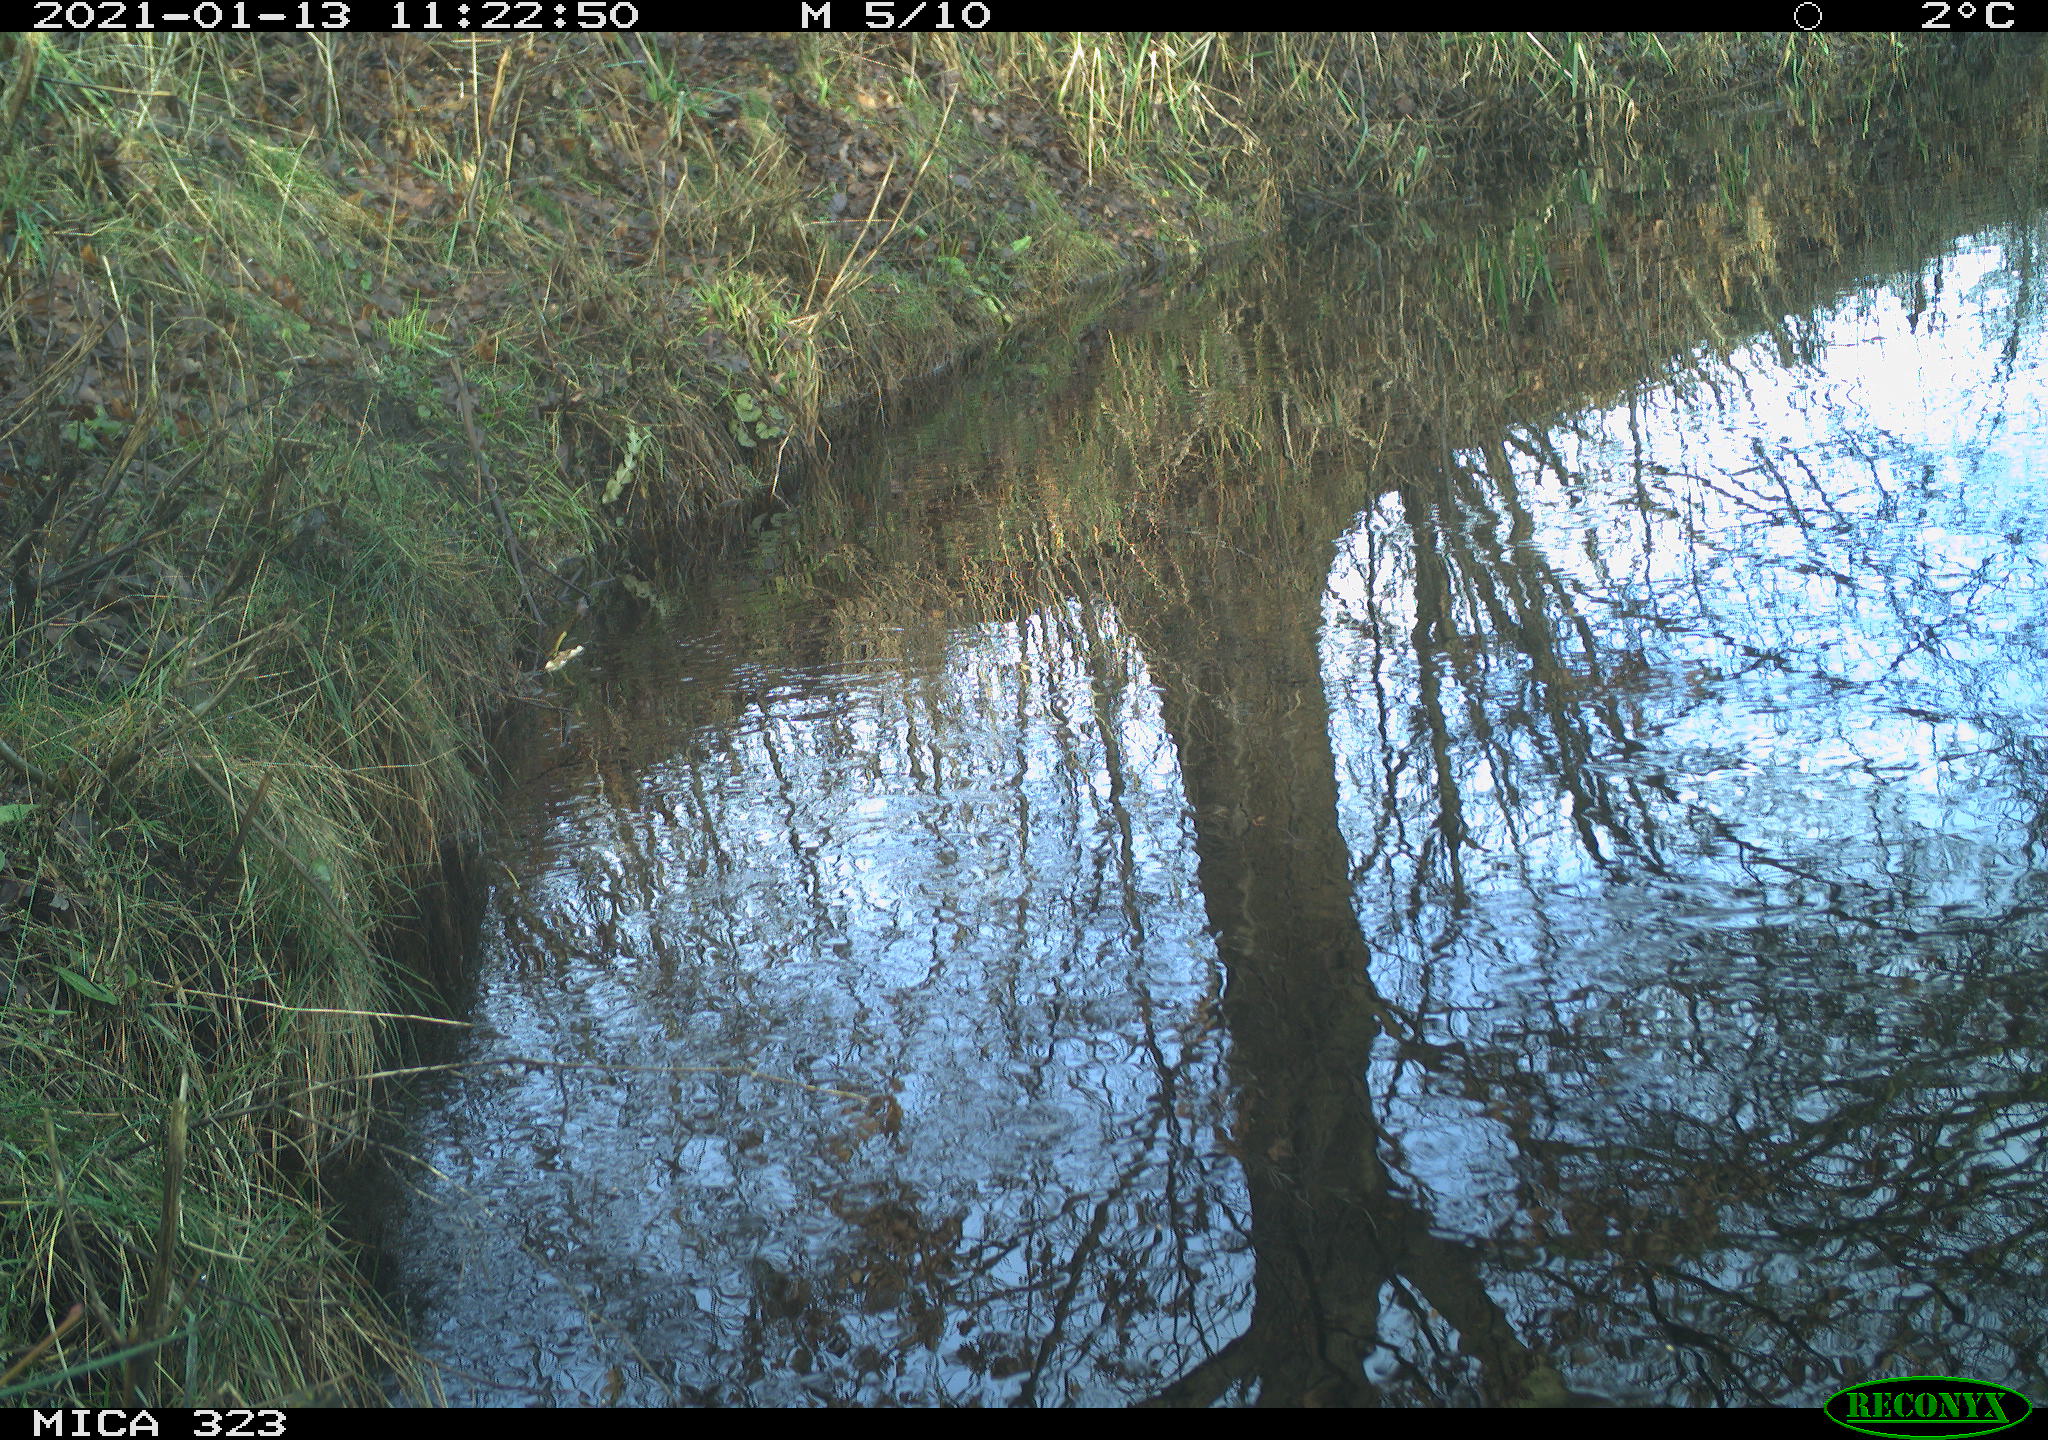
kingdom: Animalia
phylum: Chordata
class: Aves
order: Passeriformes
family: Paridae
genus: Parus
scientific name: Parus major
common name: Great tit
